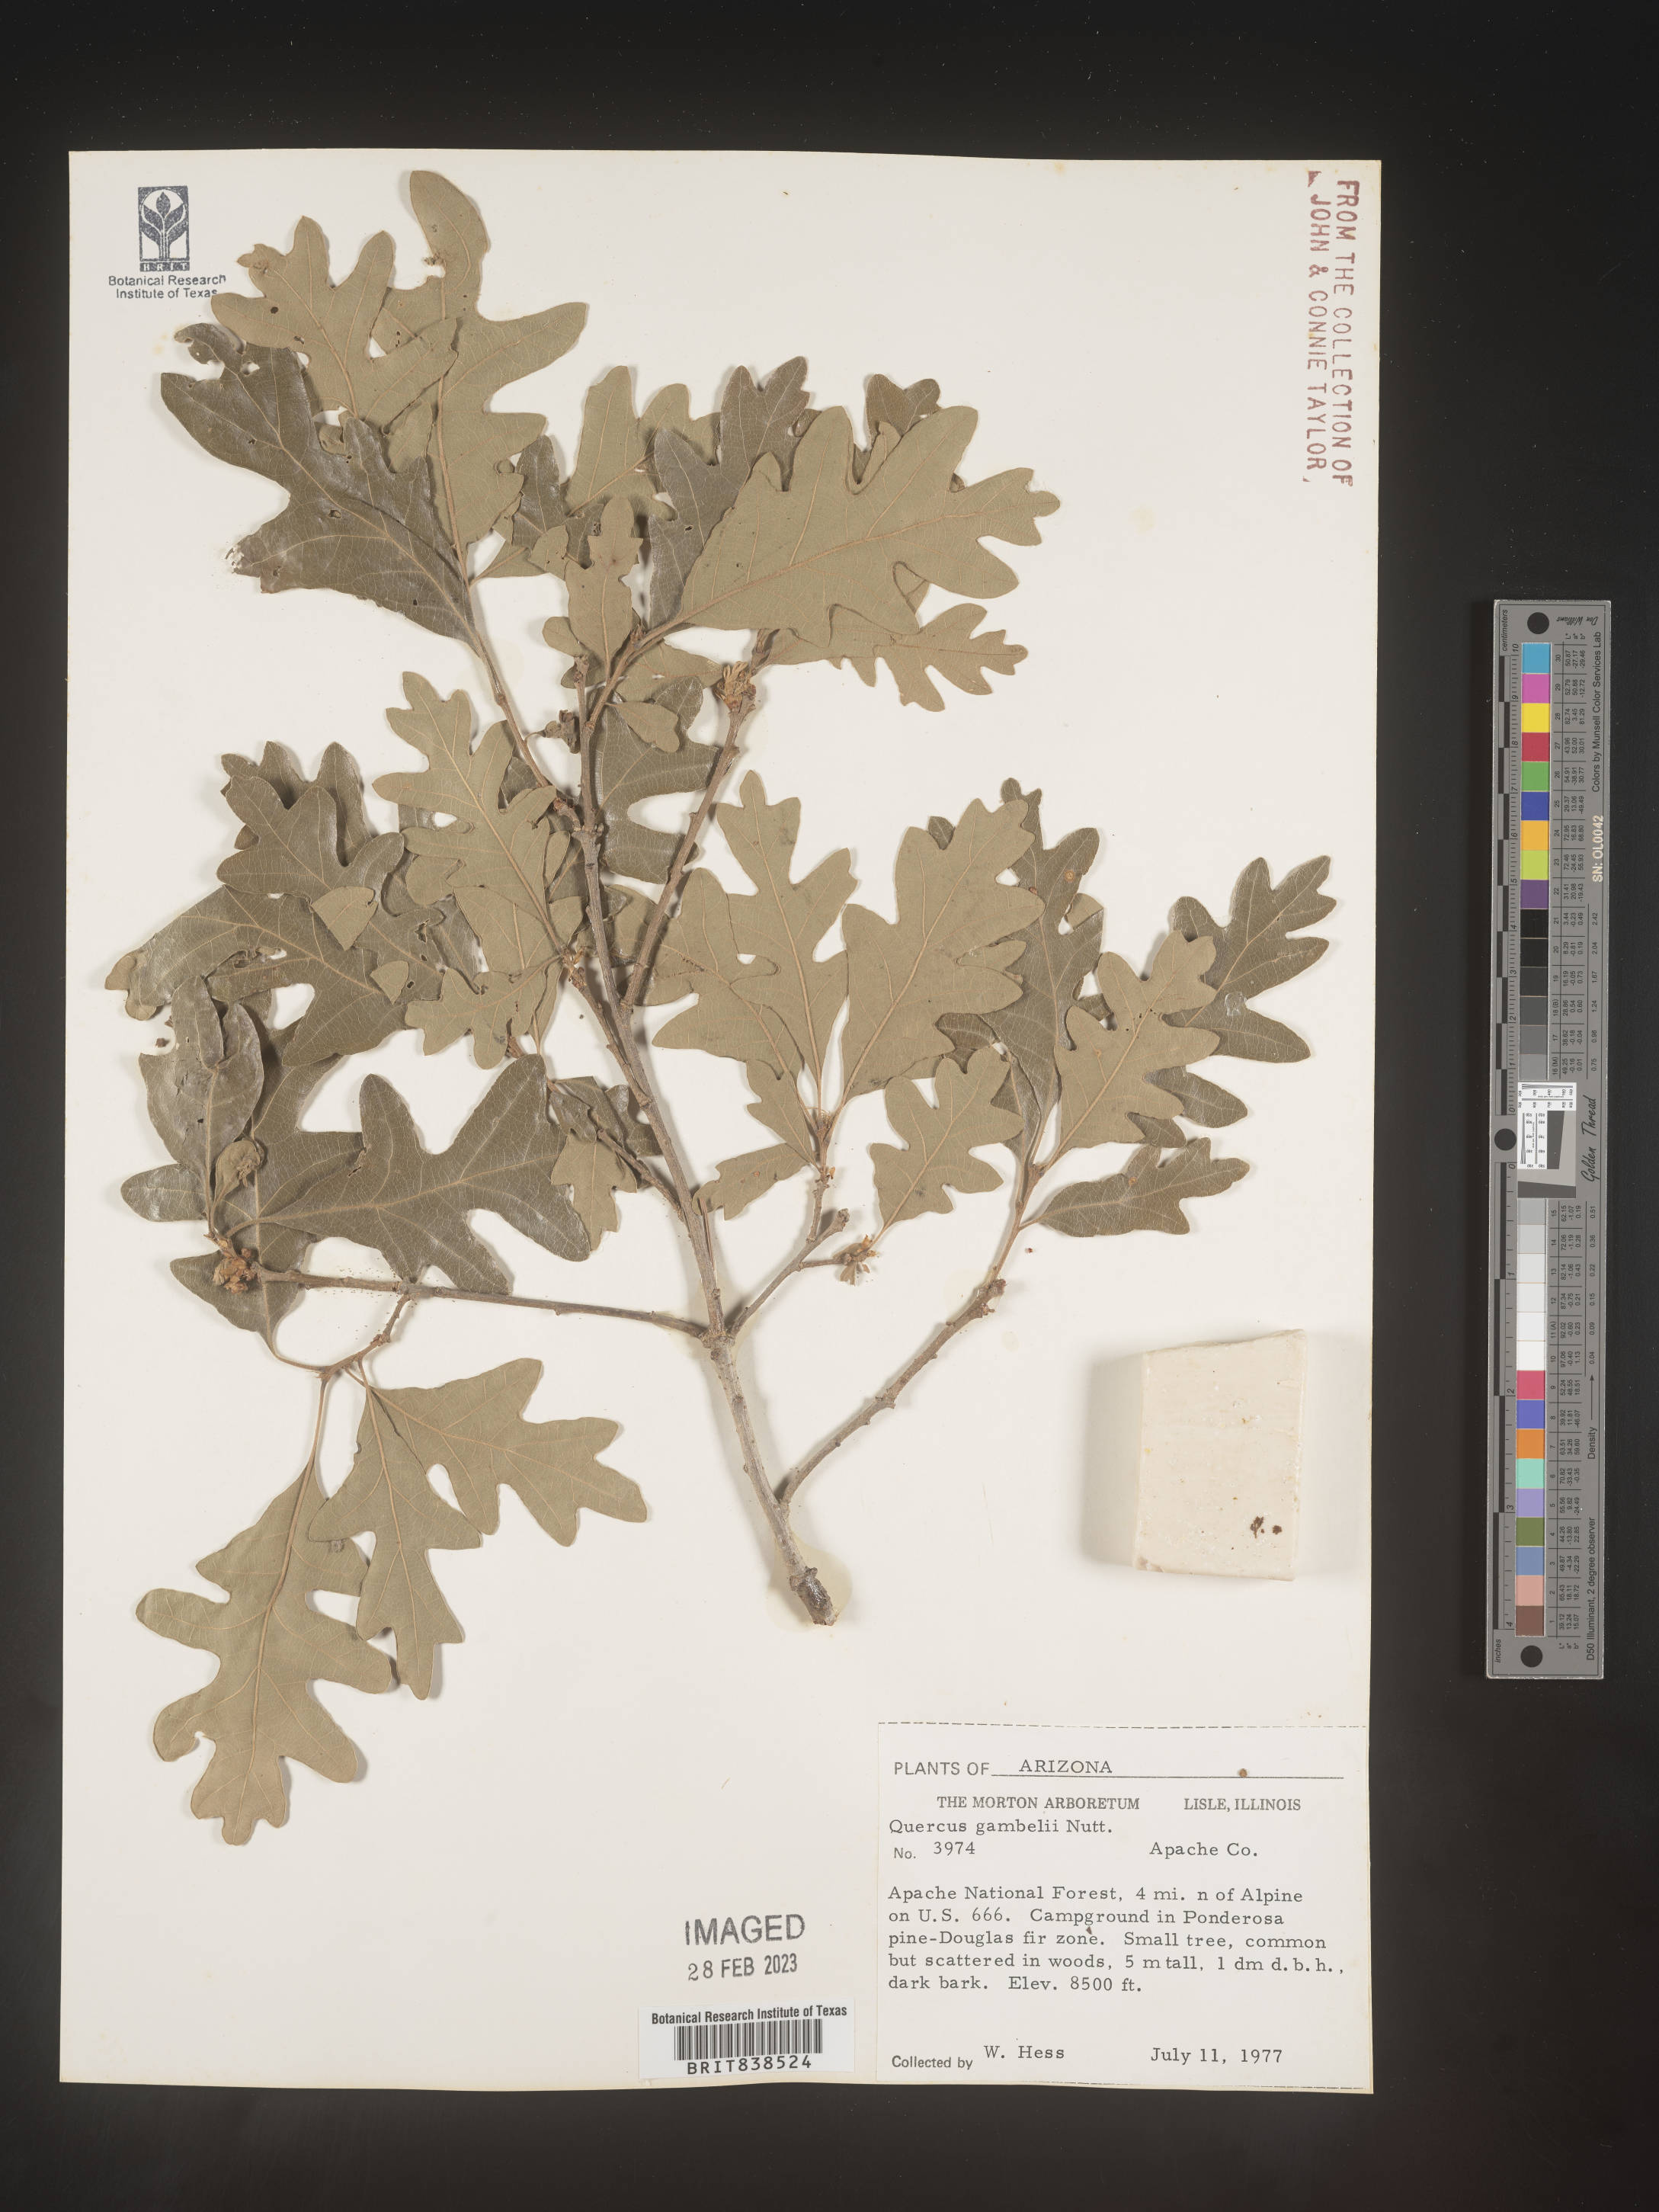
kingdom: Plantae
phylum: Tracheophyta
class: Magnoliopsida
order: Fagales
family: Fagaceae
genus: Quercus
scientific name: Quercus gambelii
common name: Gambel oak
